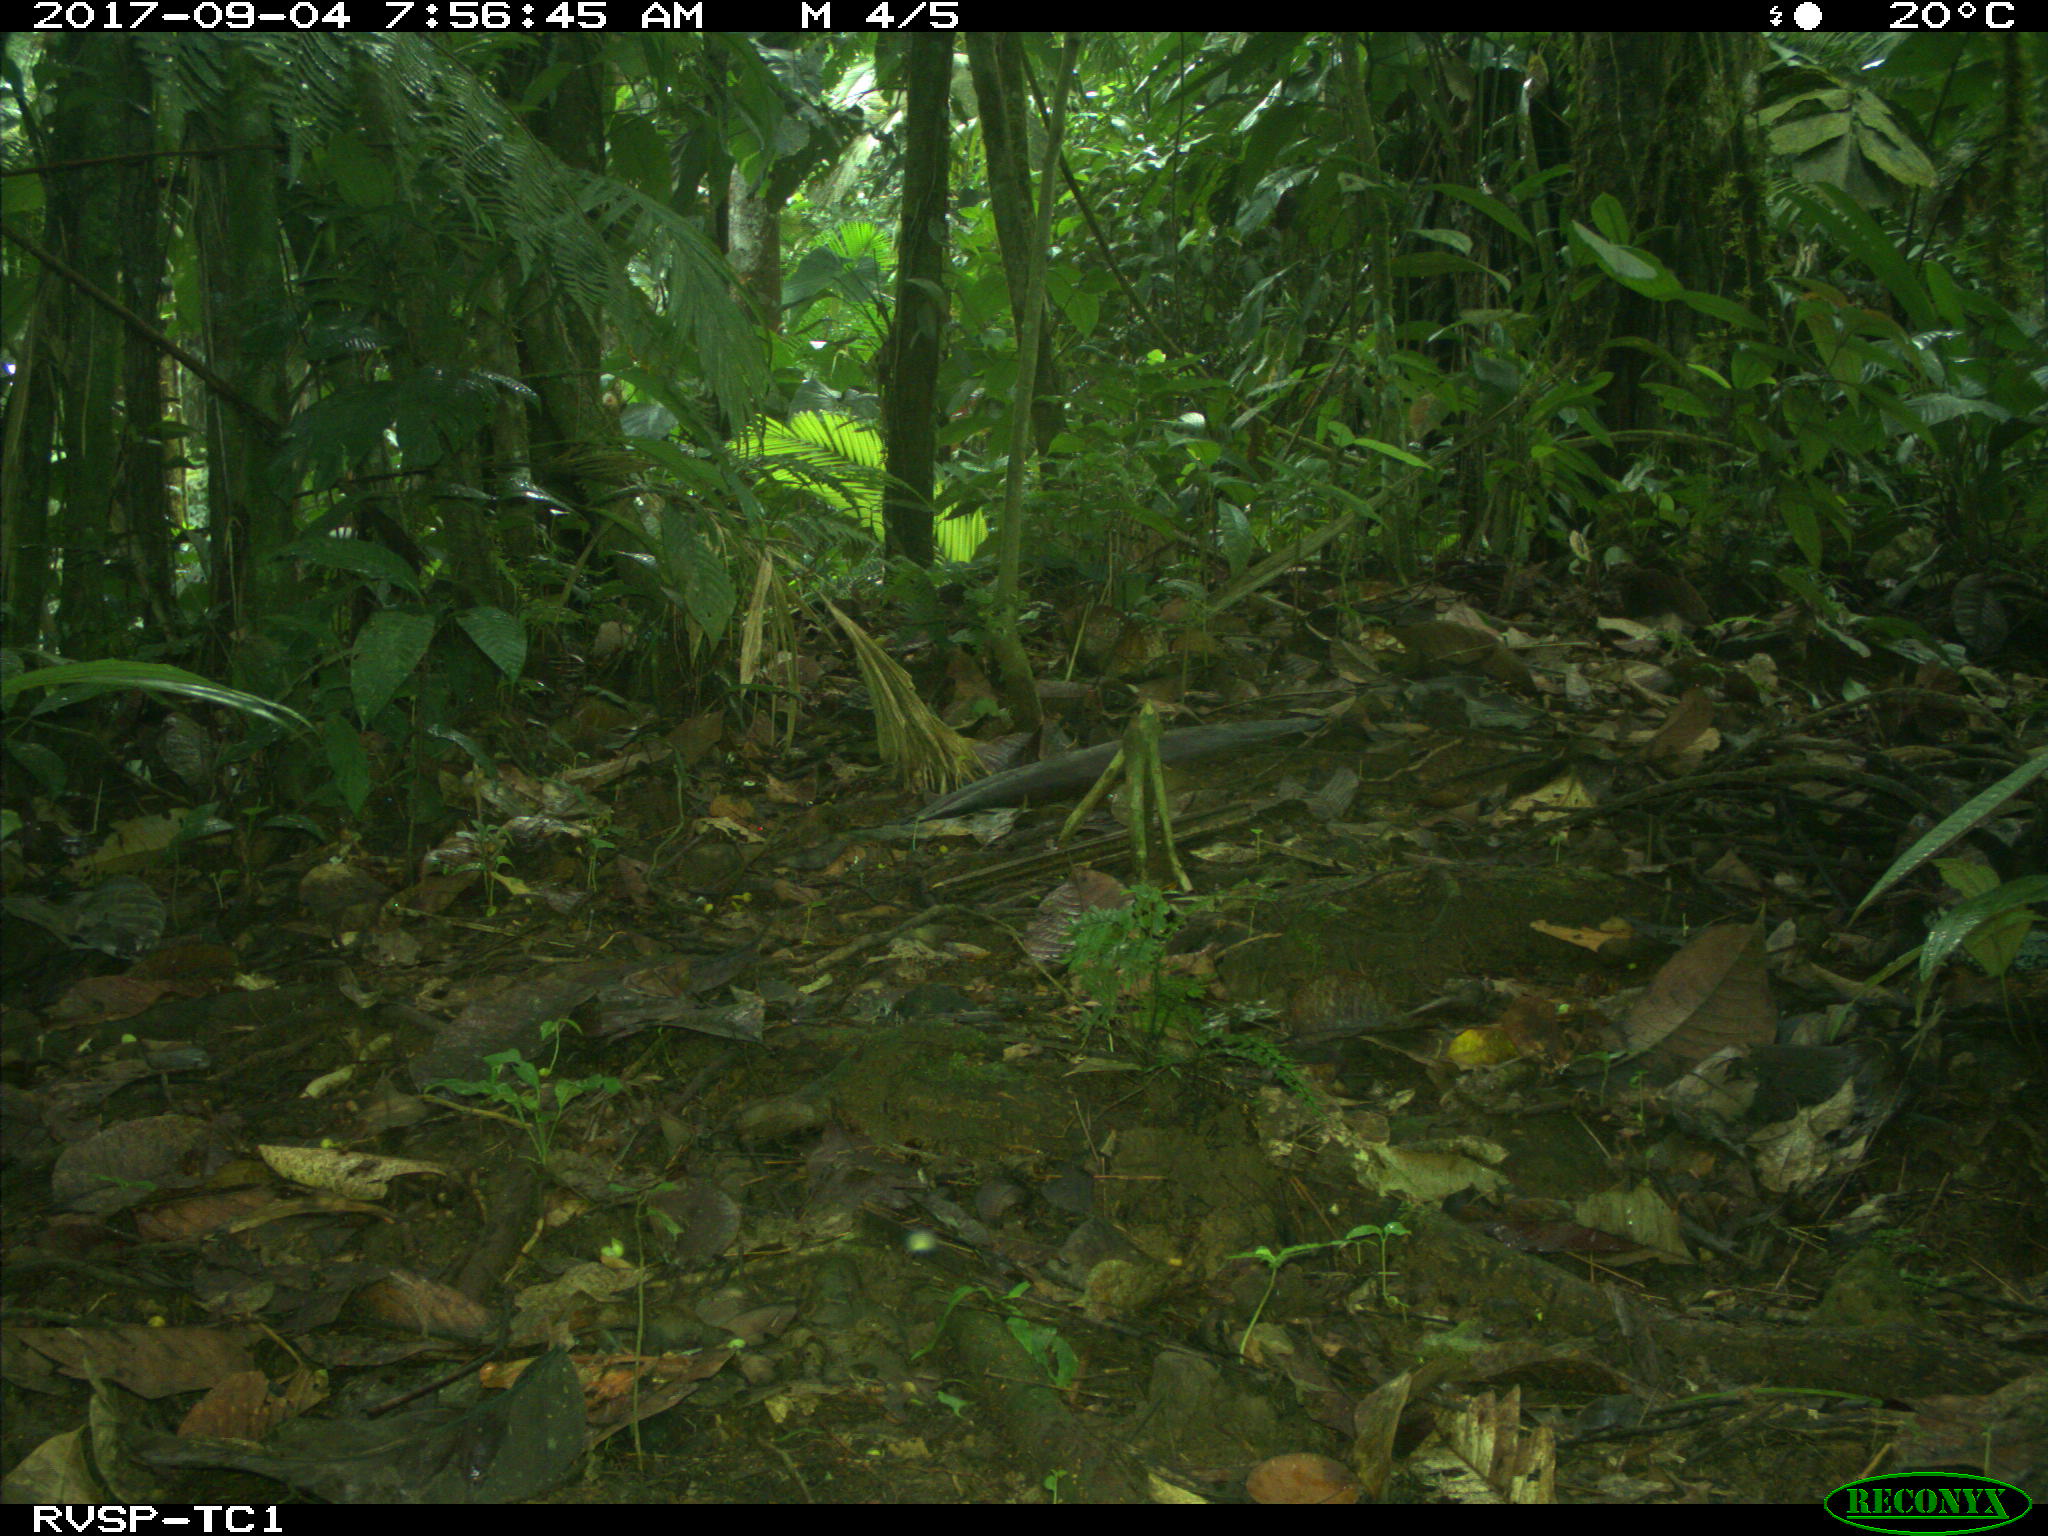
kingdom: Animalia
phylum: Chordata
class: Mammalia
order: Rodentia
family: Dasyproctidae
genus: Dasyprocta
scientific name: Dasyprocta punctata
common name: Central american agouti
